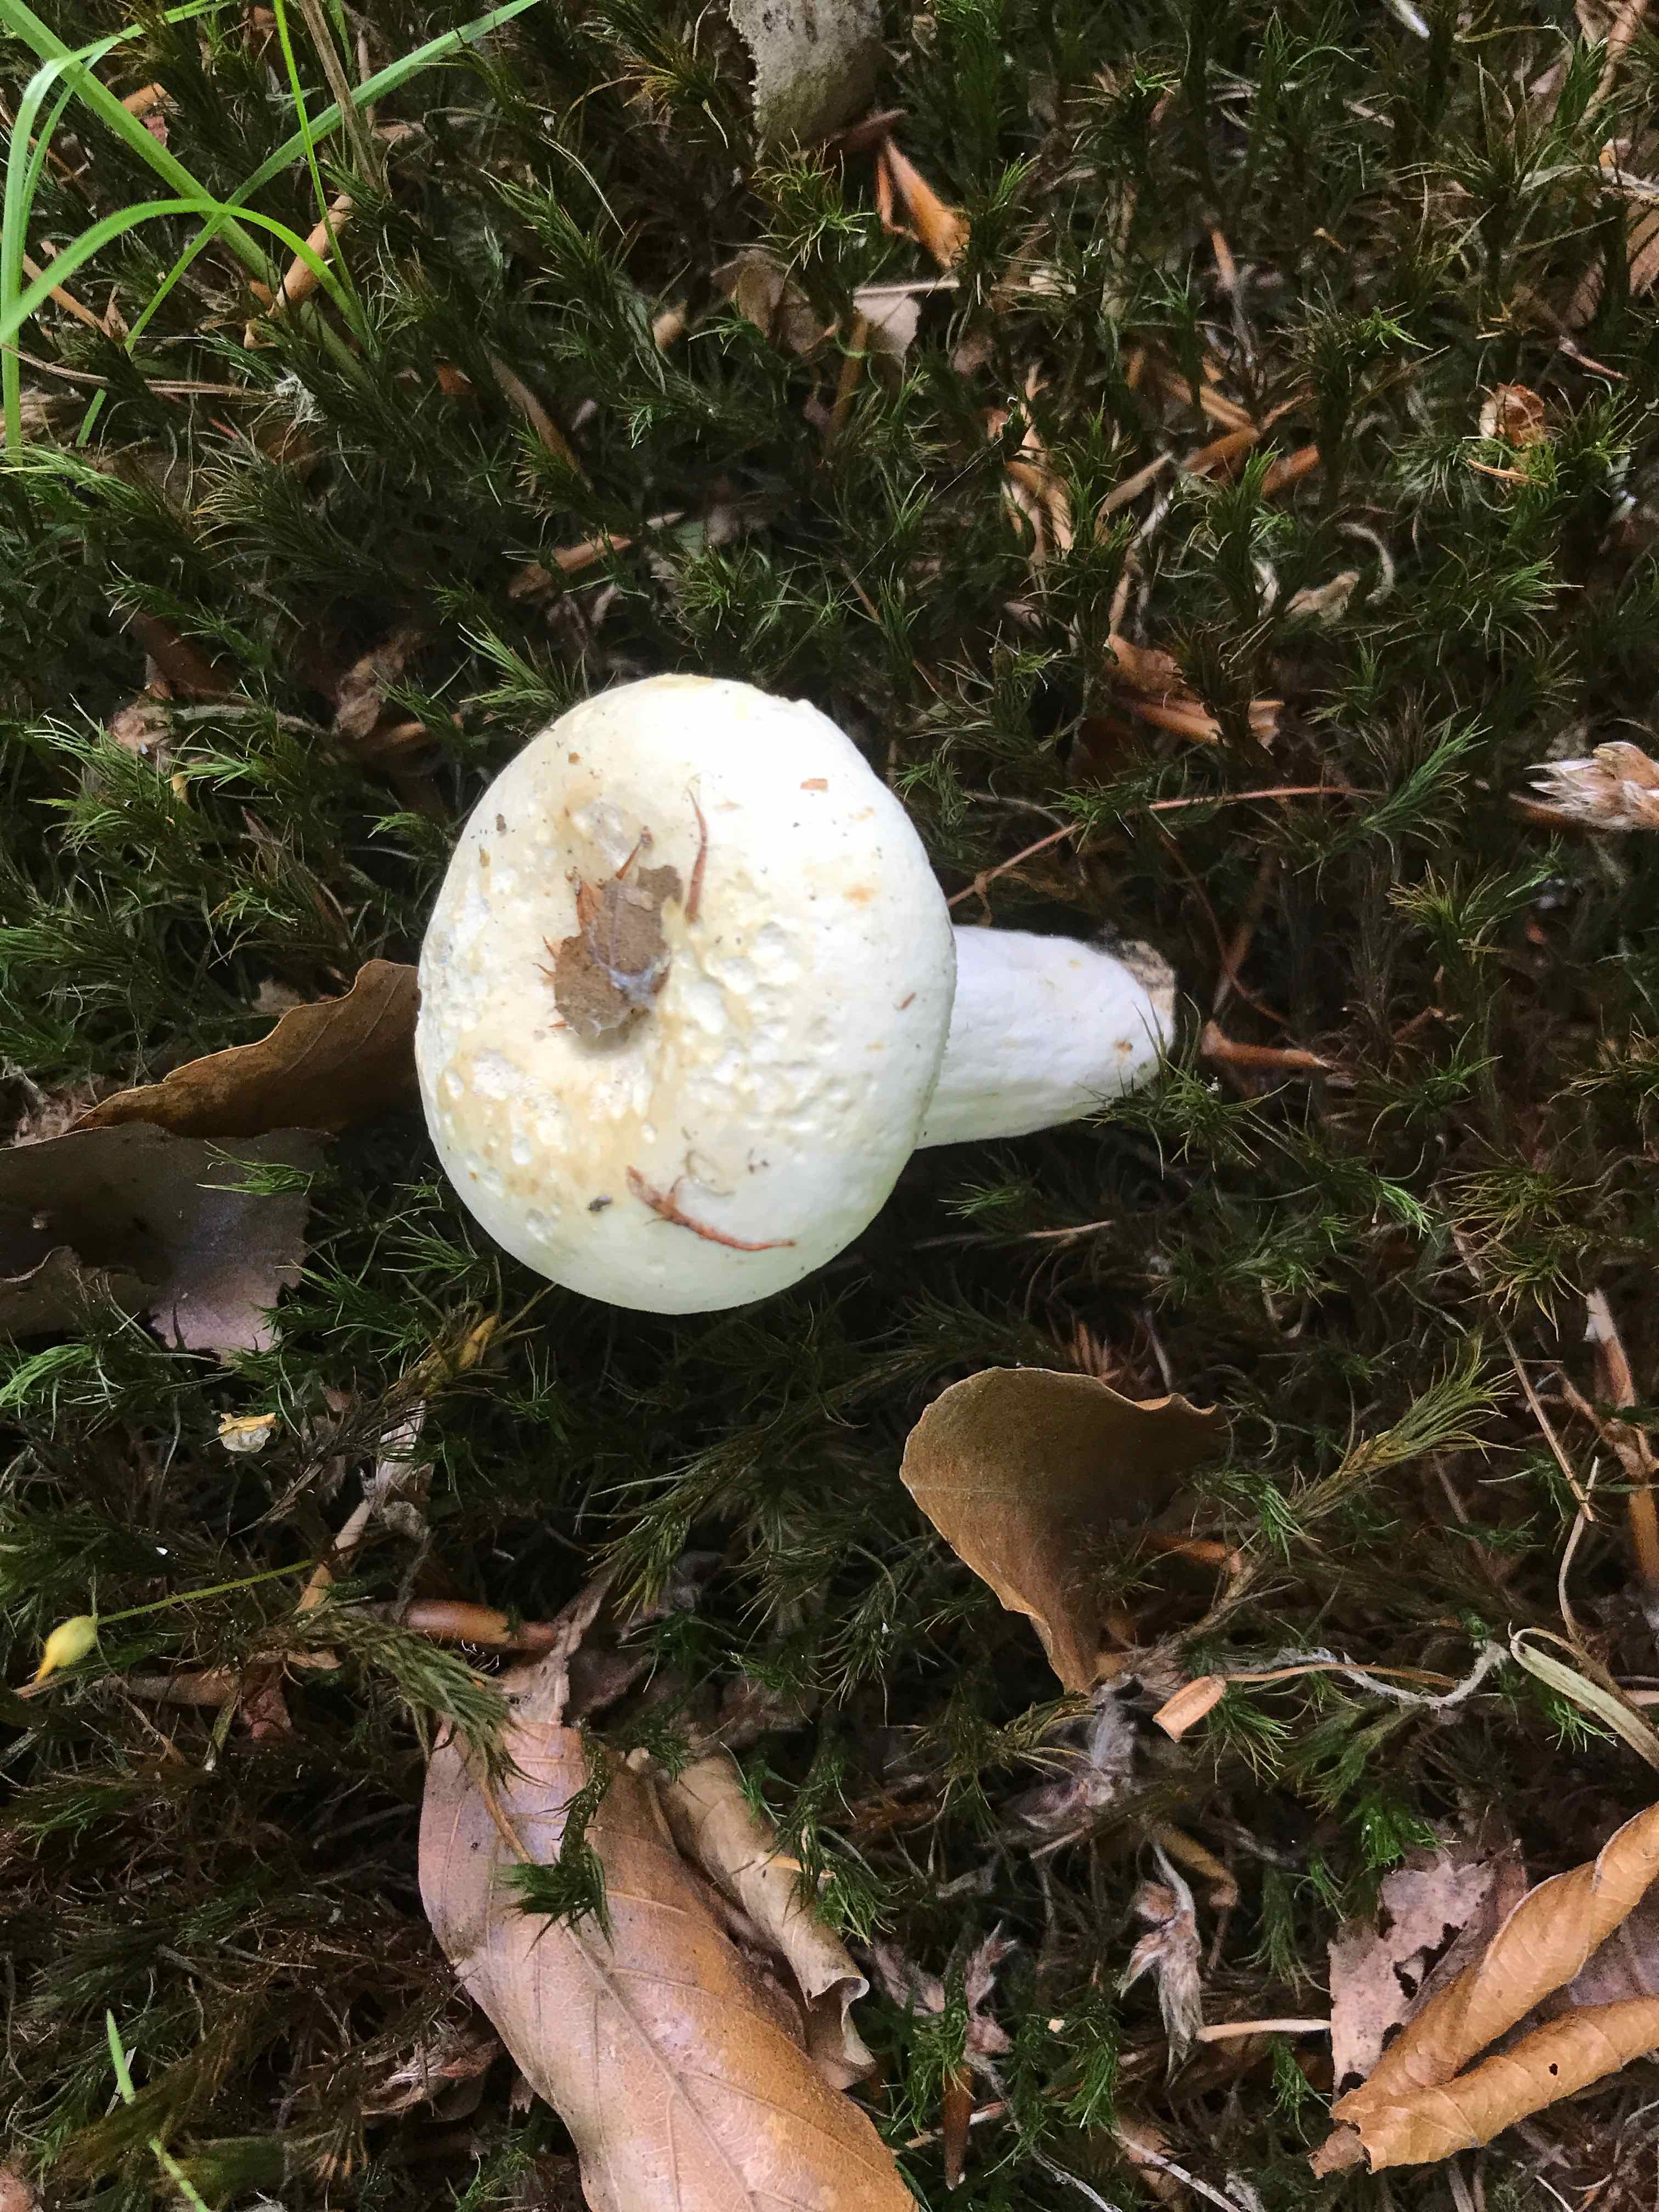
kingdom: Fungi
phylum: Basidiomycota
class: Agaricomycetes
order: Russulales
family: Russulaceae
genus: Lactifluus
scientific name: Lactifluus piperatus
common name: peber-mælkehat
